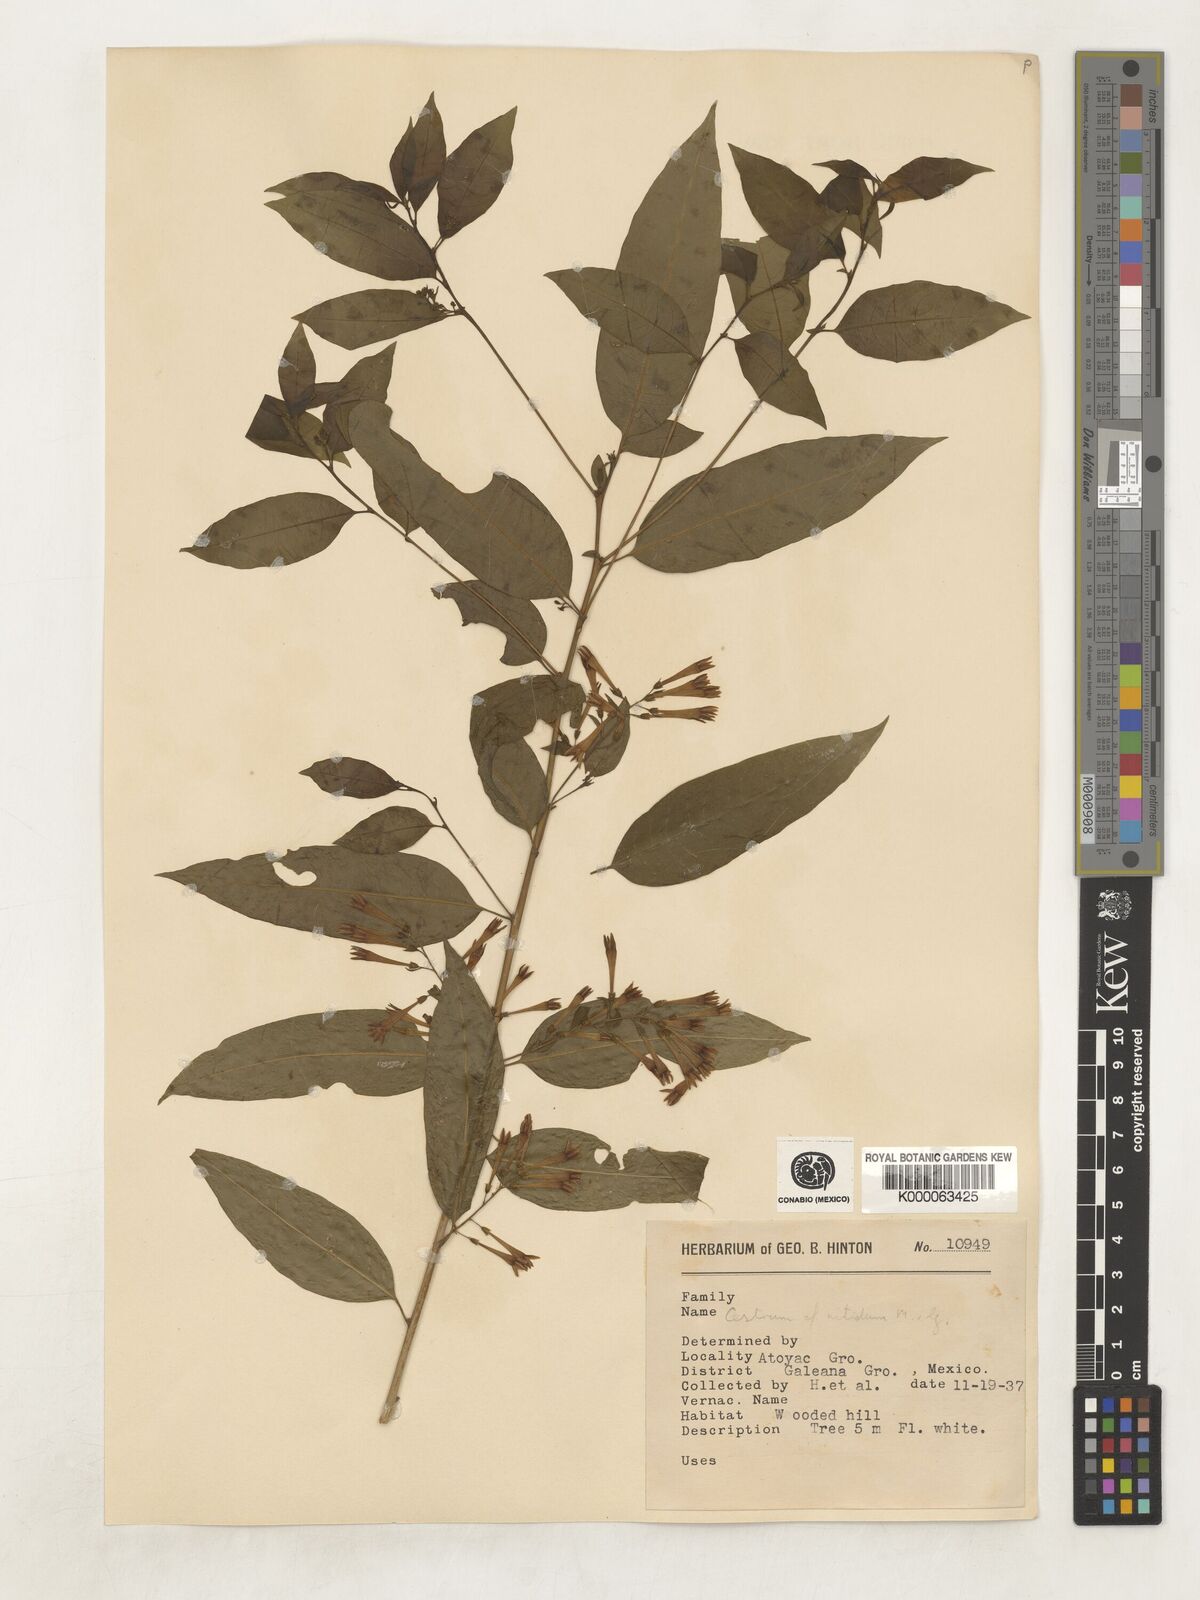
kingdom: Plantae
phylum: Tracheophyta
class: Magnoliopsida
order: Solanales
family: Solanaceae
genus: Cestrum
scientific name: Cestrum nitidum
